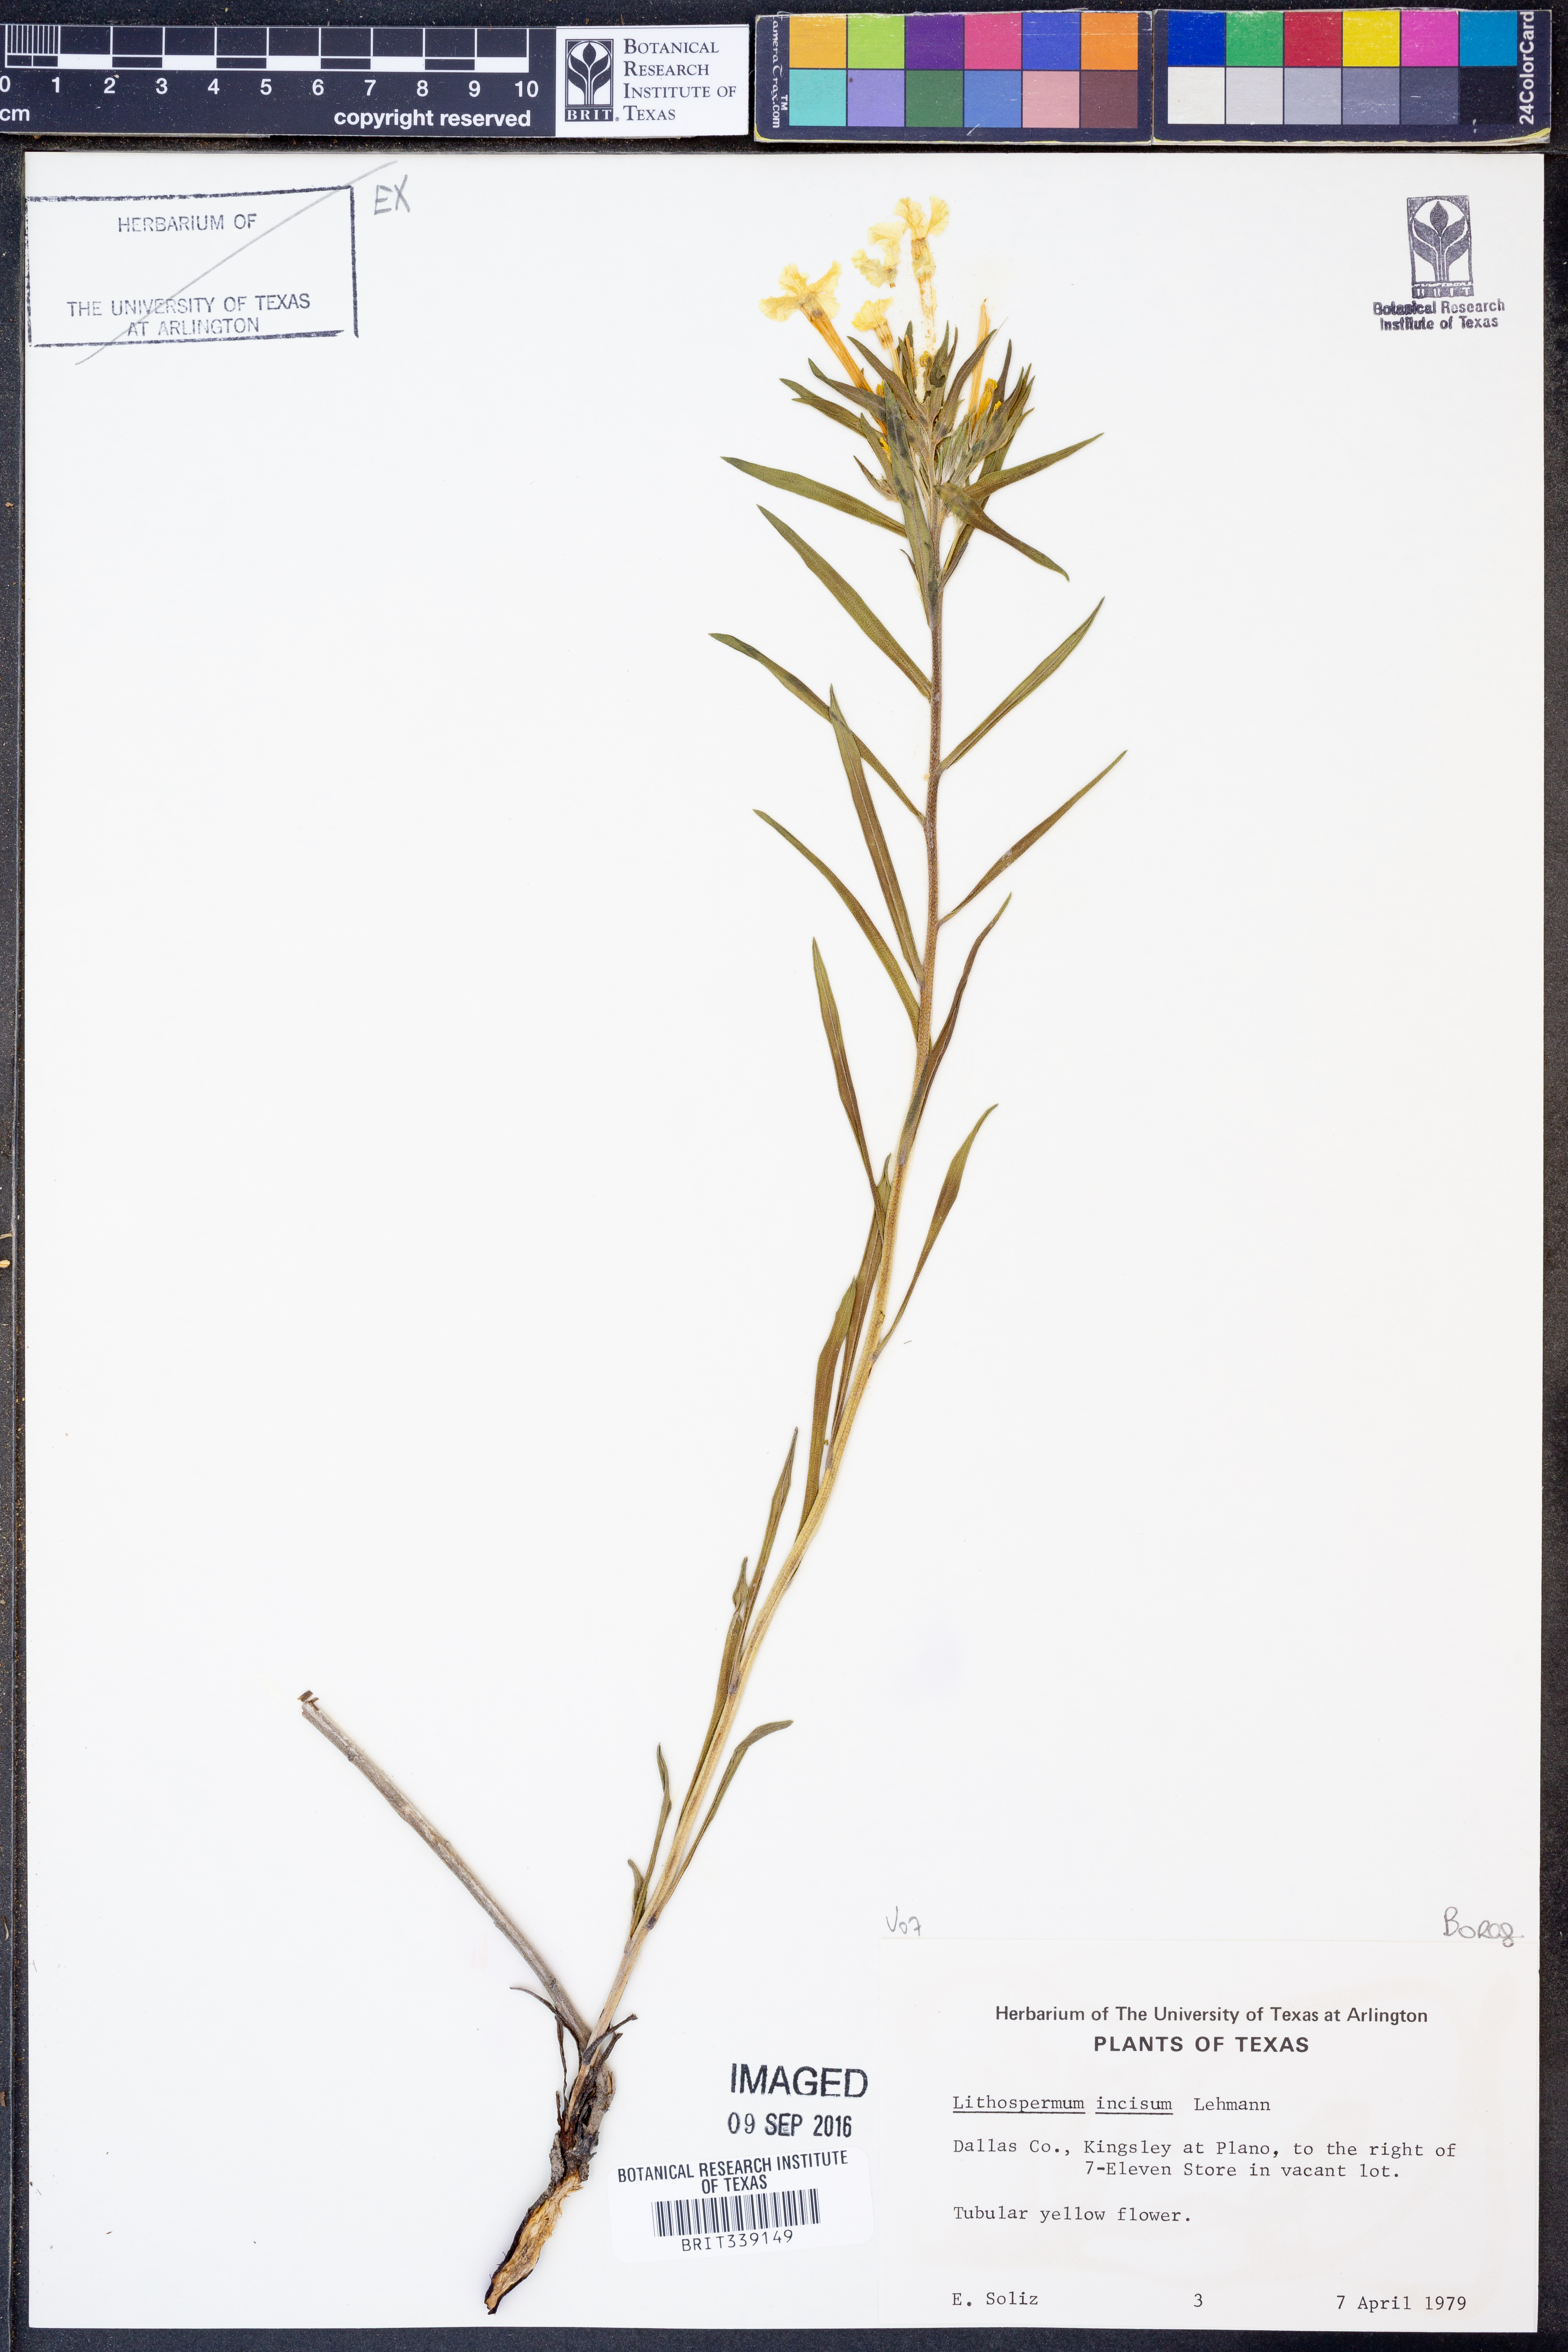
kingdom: Plantae
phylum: Tracheophyta
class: Magnoliopsida
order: Boraginales
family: Boraginaceae
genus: Lithospermum
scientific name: Lithospermum incisum
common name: Fringed gromwell
